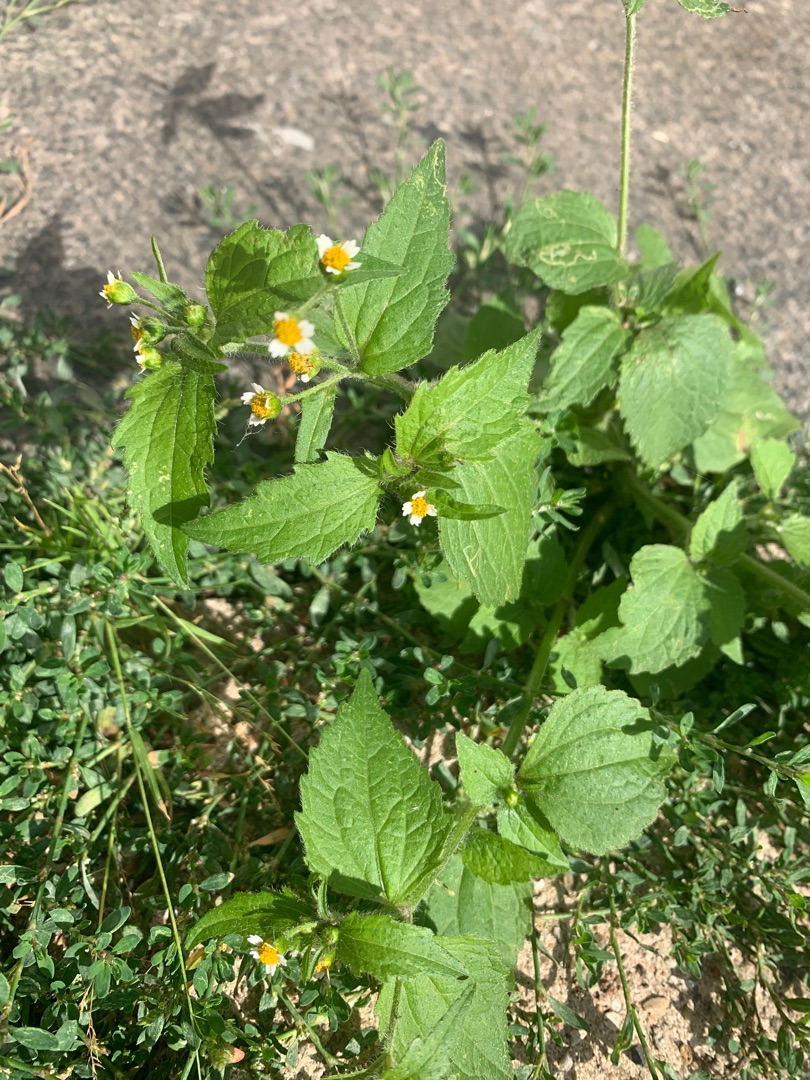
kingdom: Plantae
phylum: Tracheophyta
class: Magnoliopsida
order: Asterales
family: Asteraceae
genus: Galinsoga
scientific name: Galinsoga quadriradiata
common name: Kirtel-kortstråle
